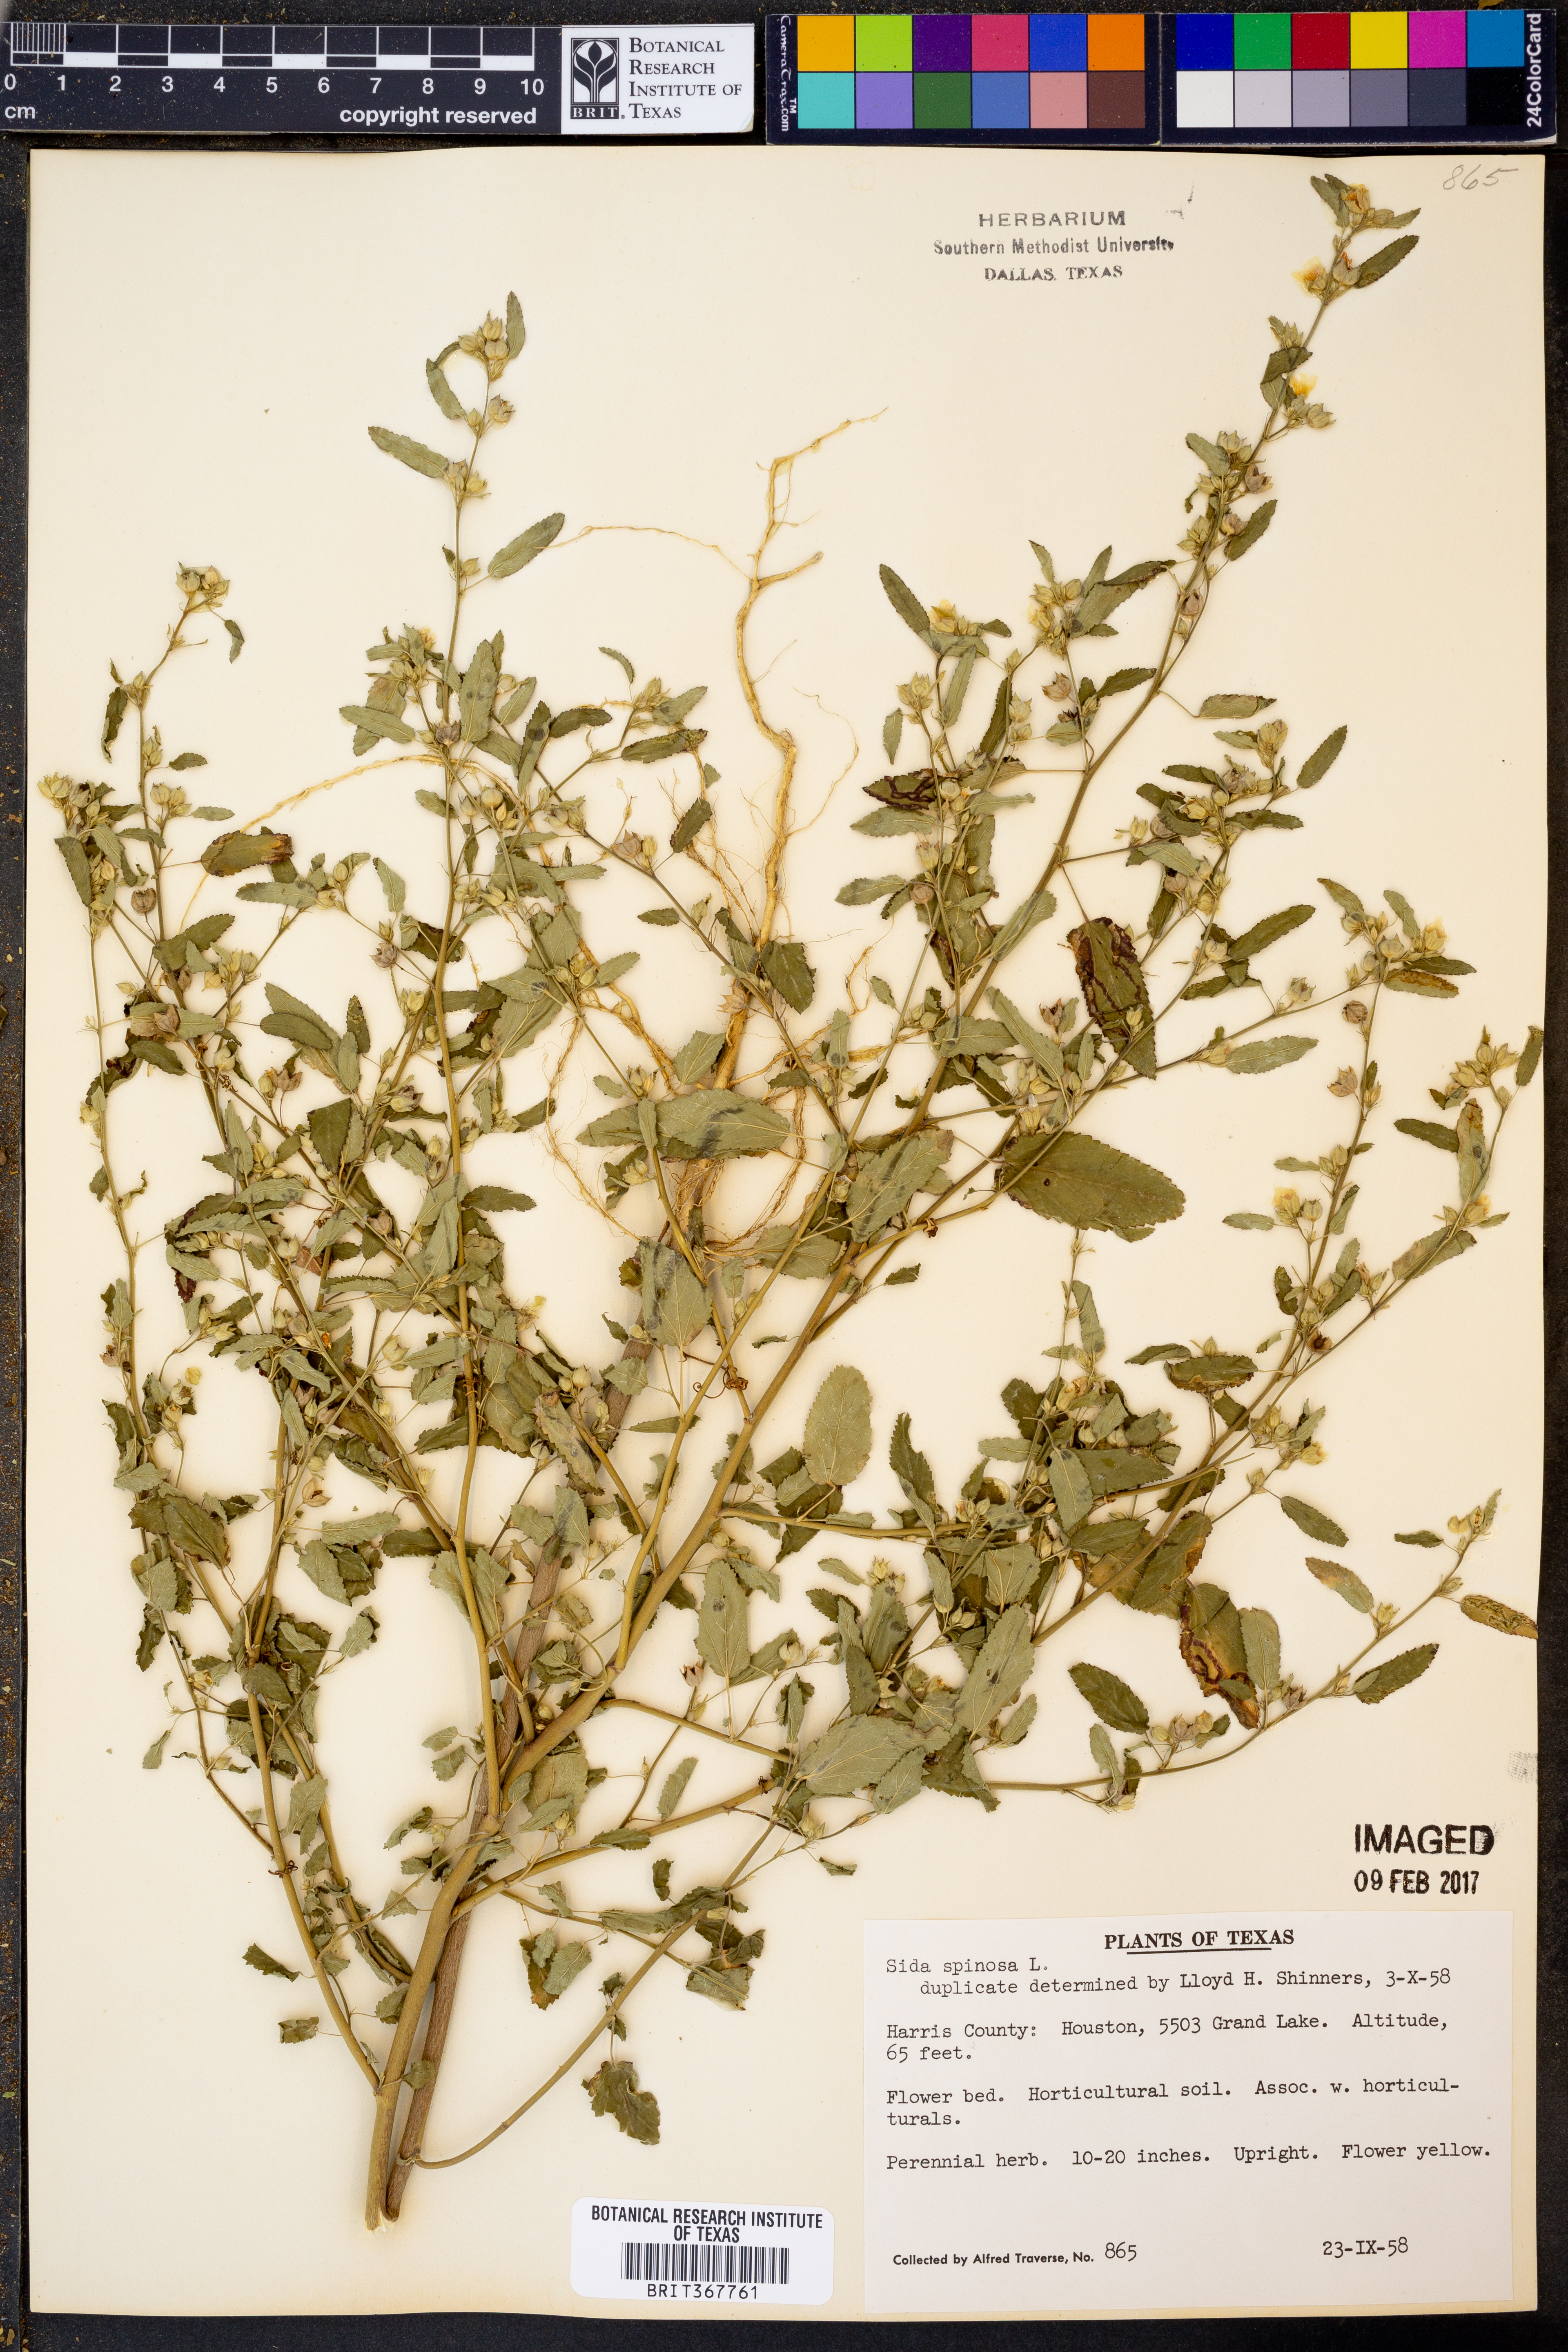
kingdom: Plantae
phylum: Tracheophyta
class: Magnoliopsida
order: Malvales
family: Malvaceae
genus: Sida
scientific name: Sida spinosa
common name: Prickly fanpetals
